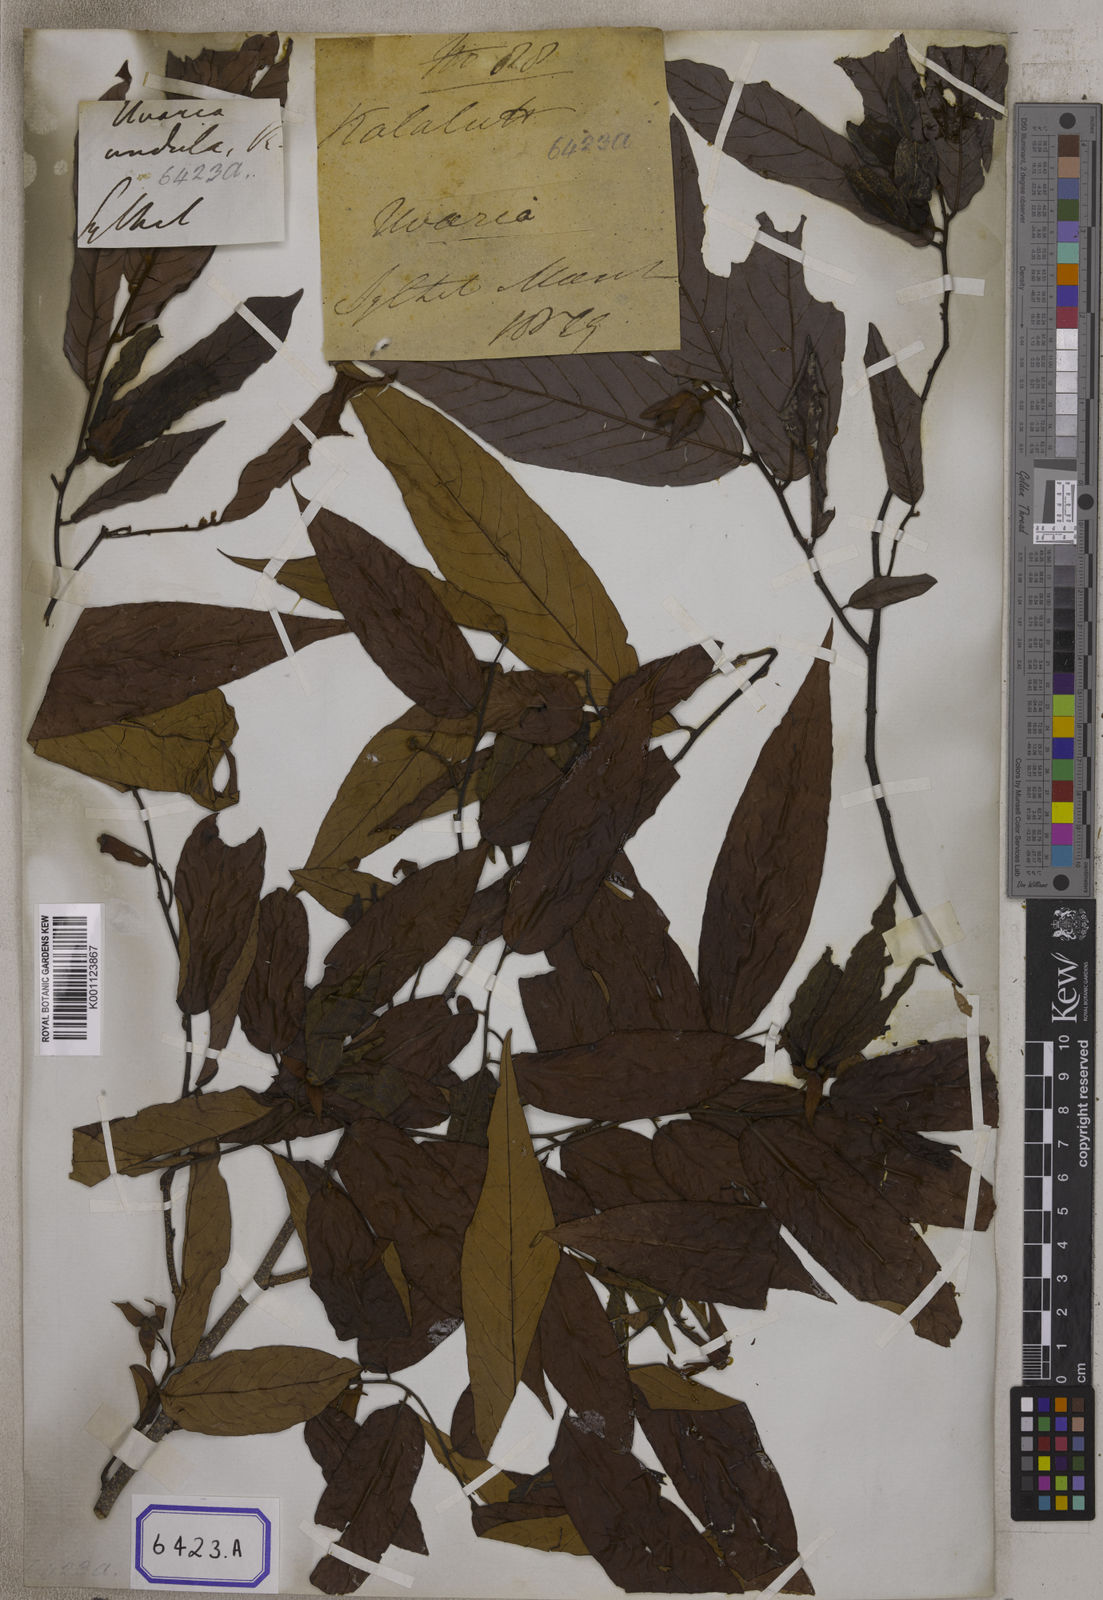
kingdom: Plantae
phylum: Tracheophyta
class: Magnoliopsida
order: Magnoliales
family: Annonaceae
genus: Unona
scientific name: Unona
